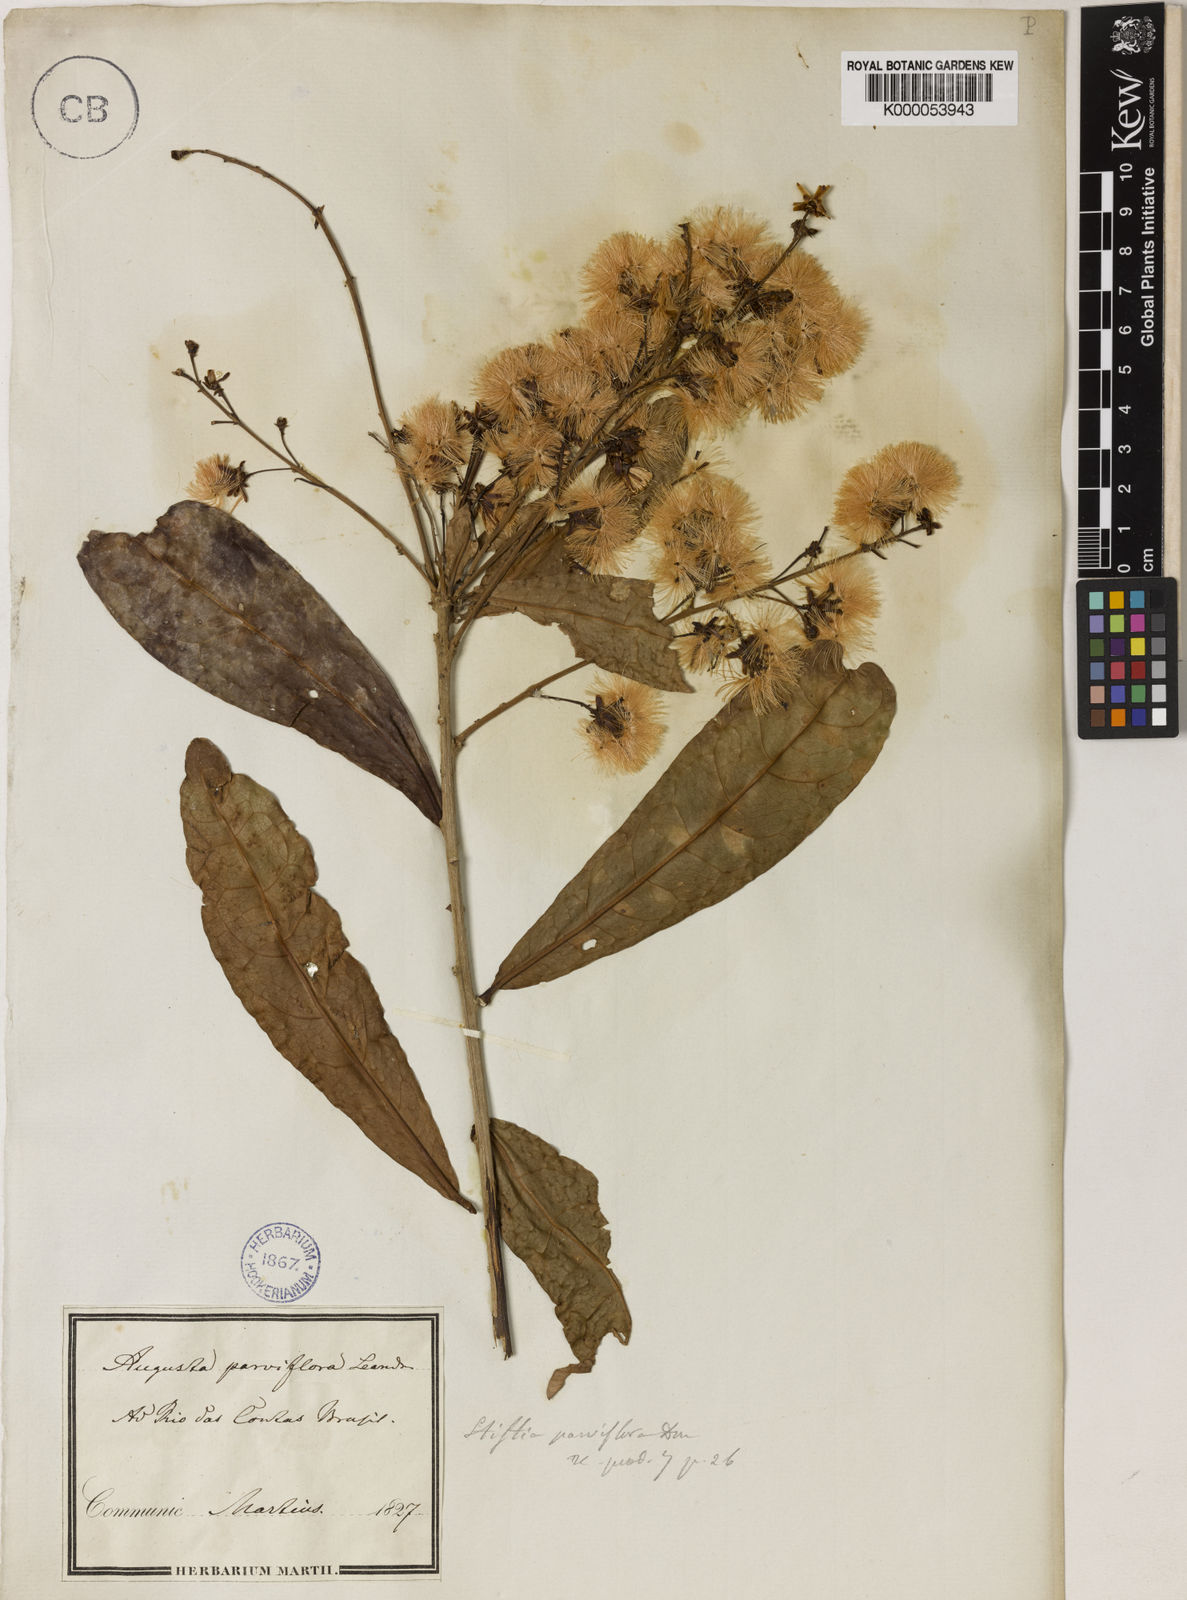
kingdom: Plantae
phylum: Tracheophyta
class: Magnoliopsida
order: Asterales
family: Asteraceae
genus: Stifftia
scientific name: Stifftia parviflora
